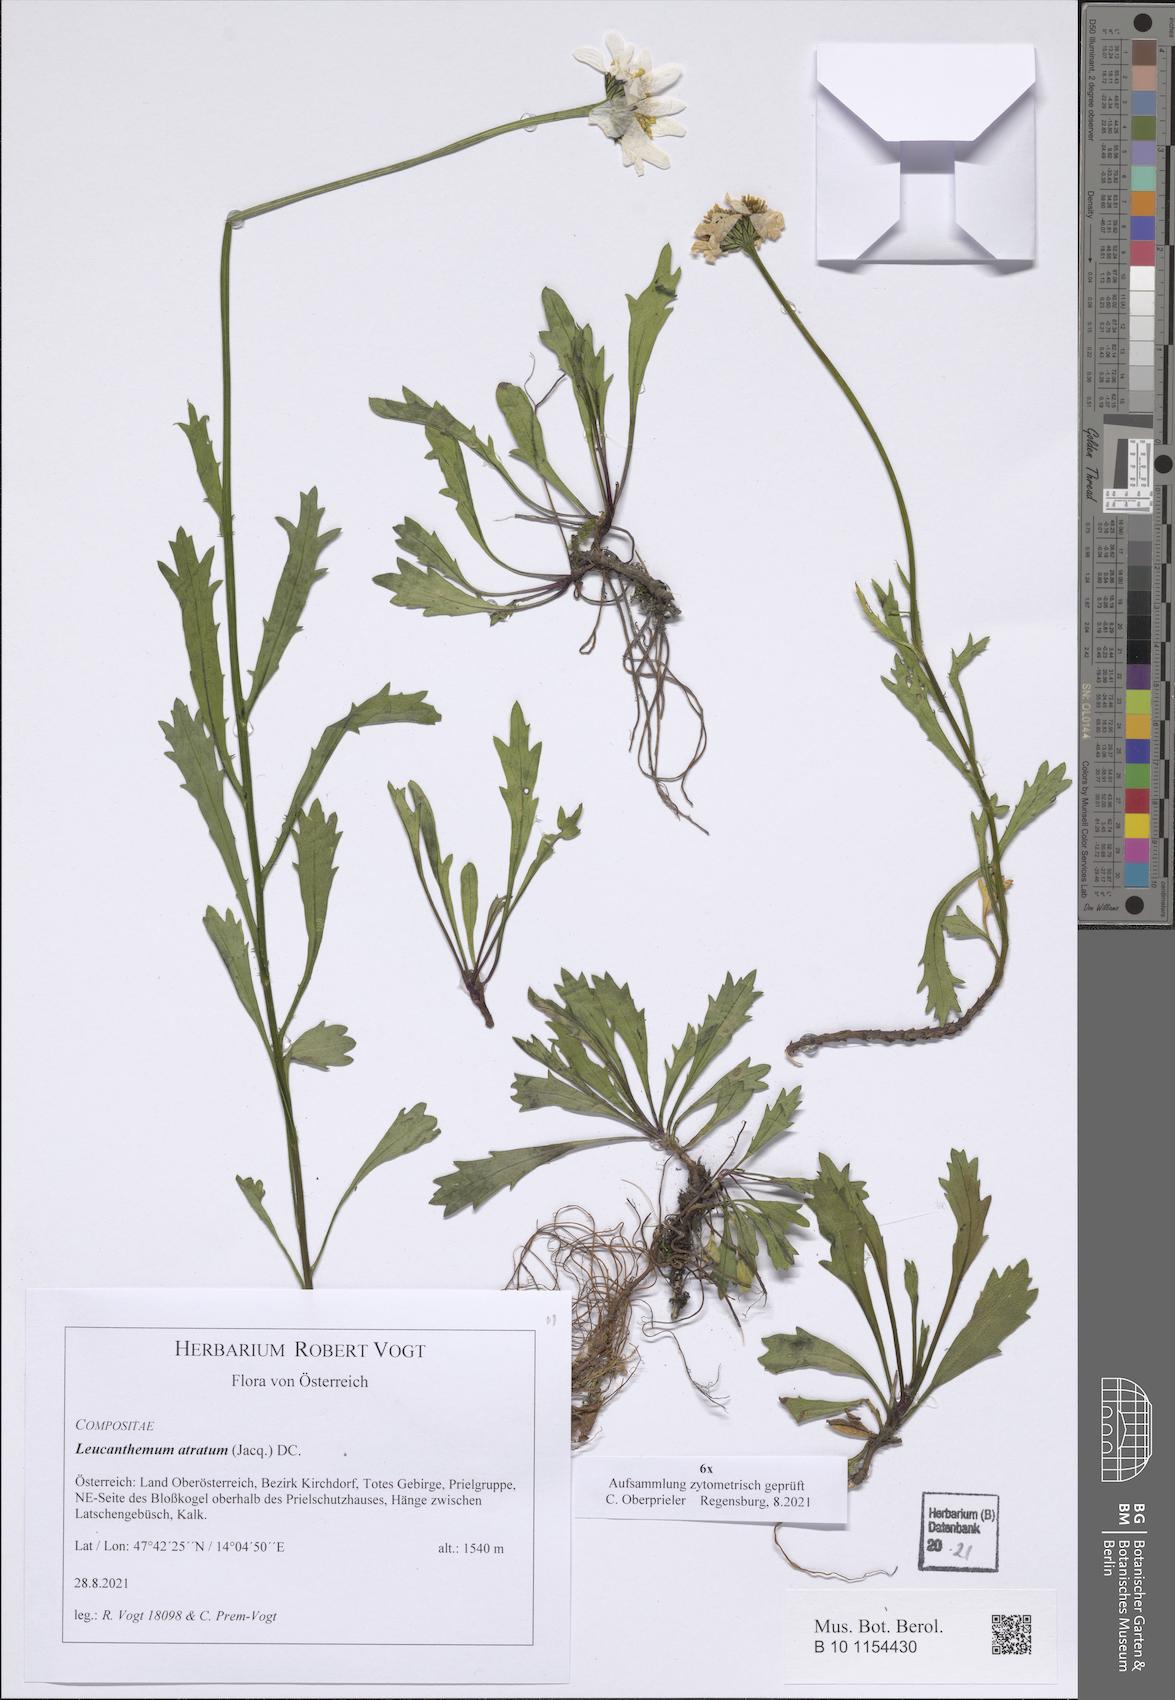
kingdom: Plantae
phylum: Tracheophyta
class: Magnoliopsida
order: Asterales
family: Asteraceae
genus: Leucanthemum
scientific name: Leucanthemum atratum
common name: Saw-leaved moon-daisy
